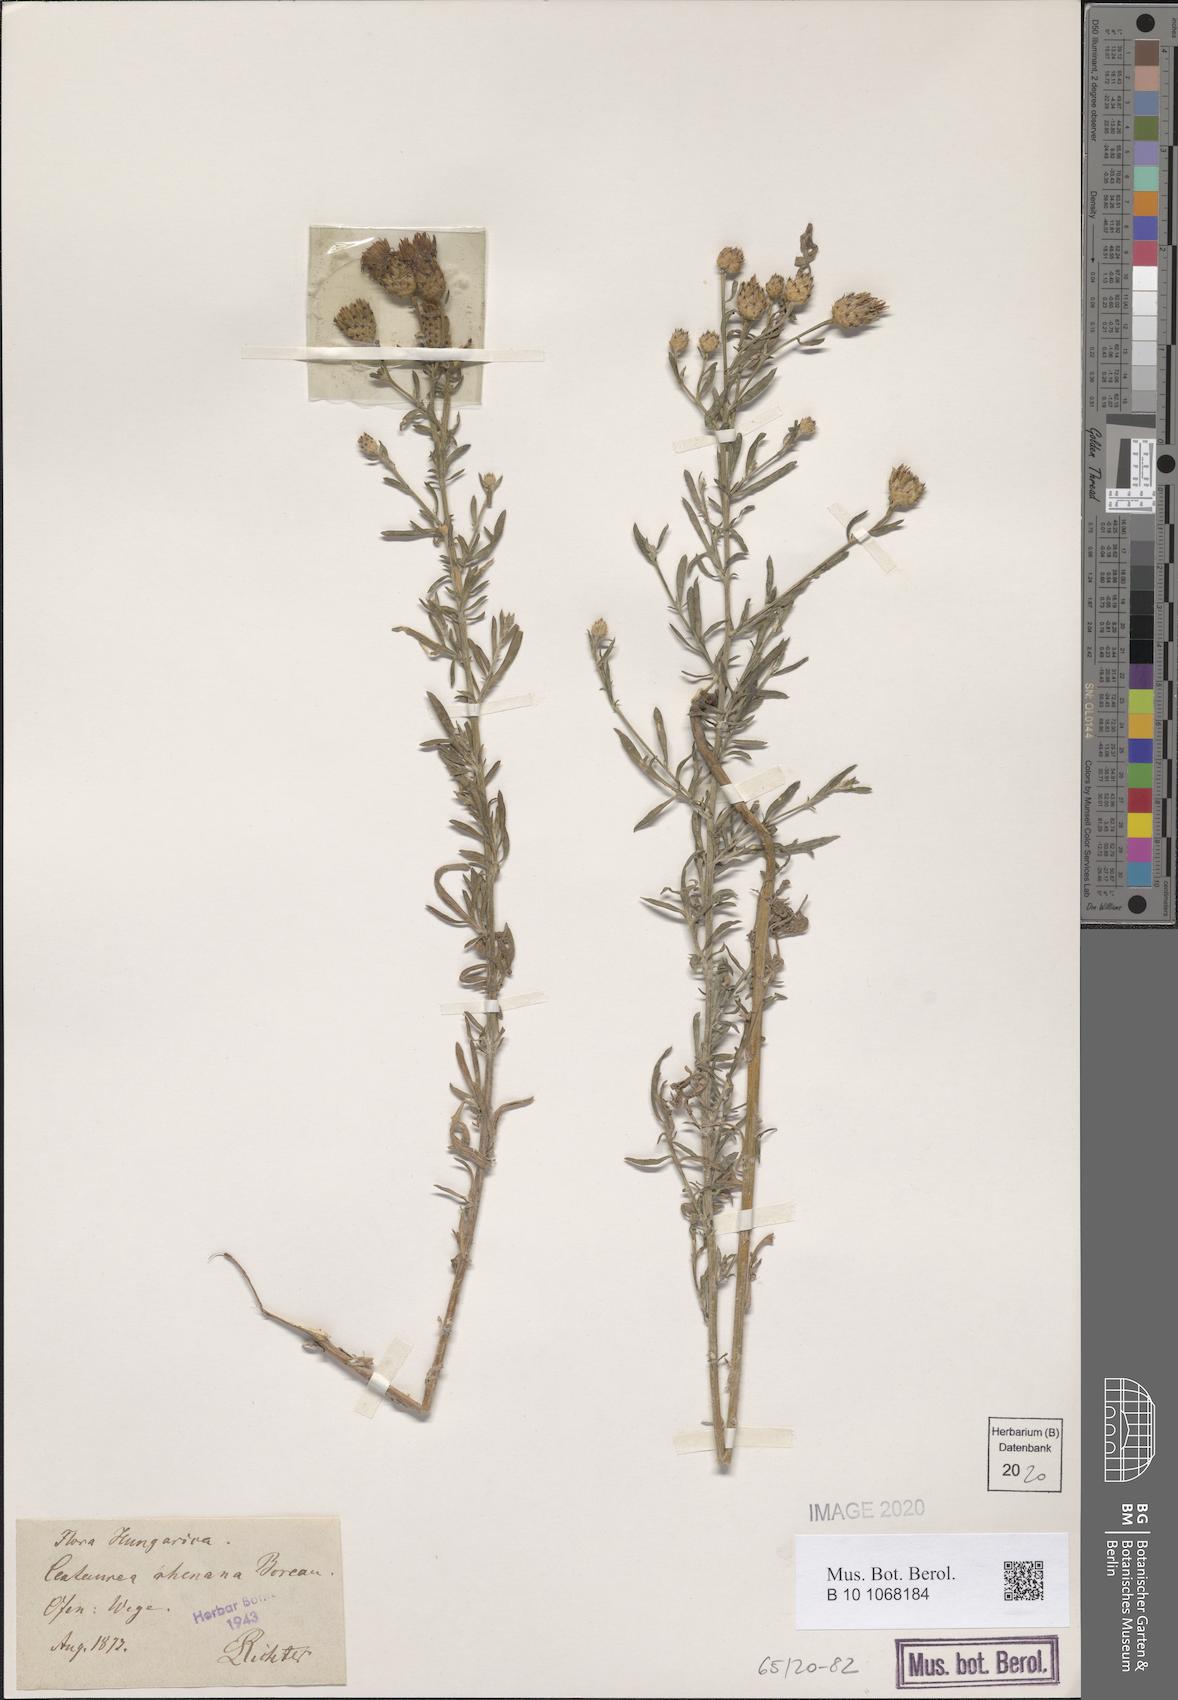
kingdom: Plantae
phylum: Tracheophyta
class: Magnoliopsida
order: Asterales
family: Asteraceae
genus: Centaurea
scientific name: Centaurea stoebe
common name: Spotted knapweed
